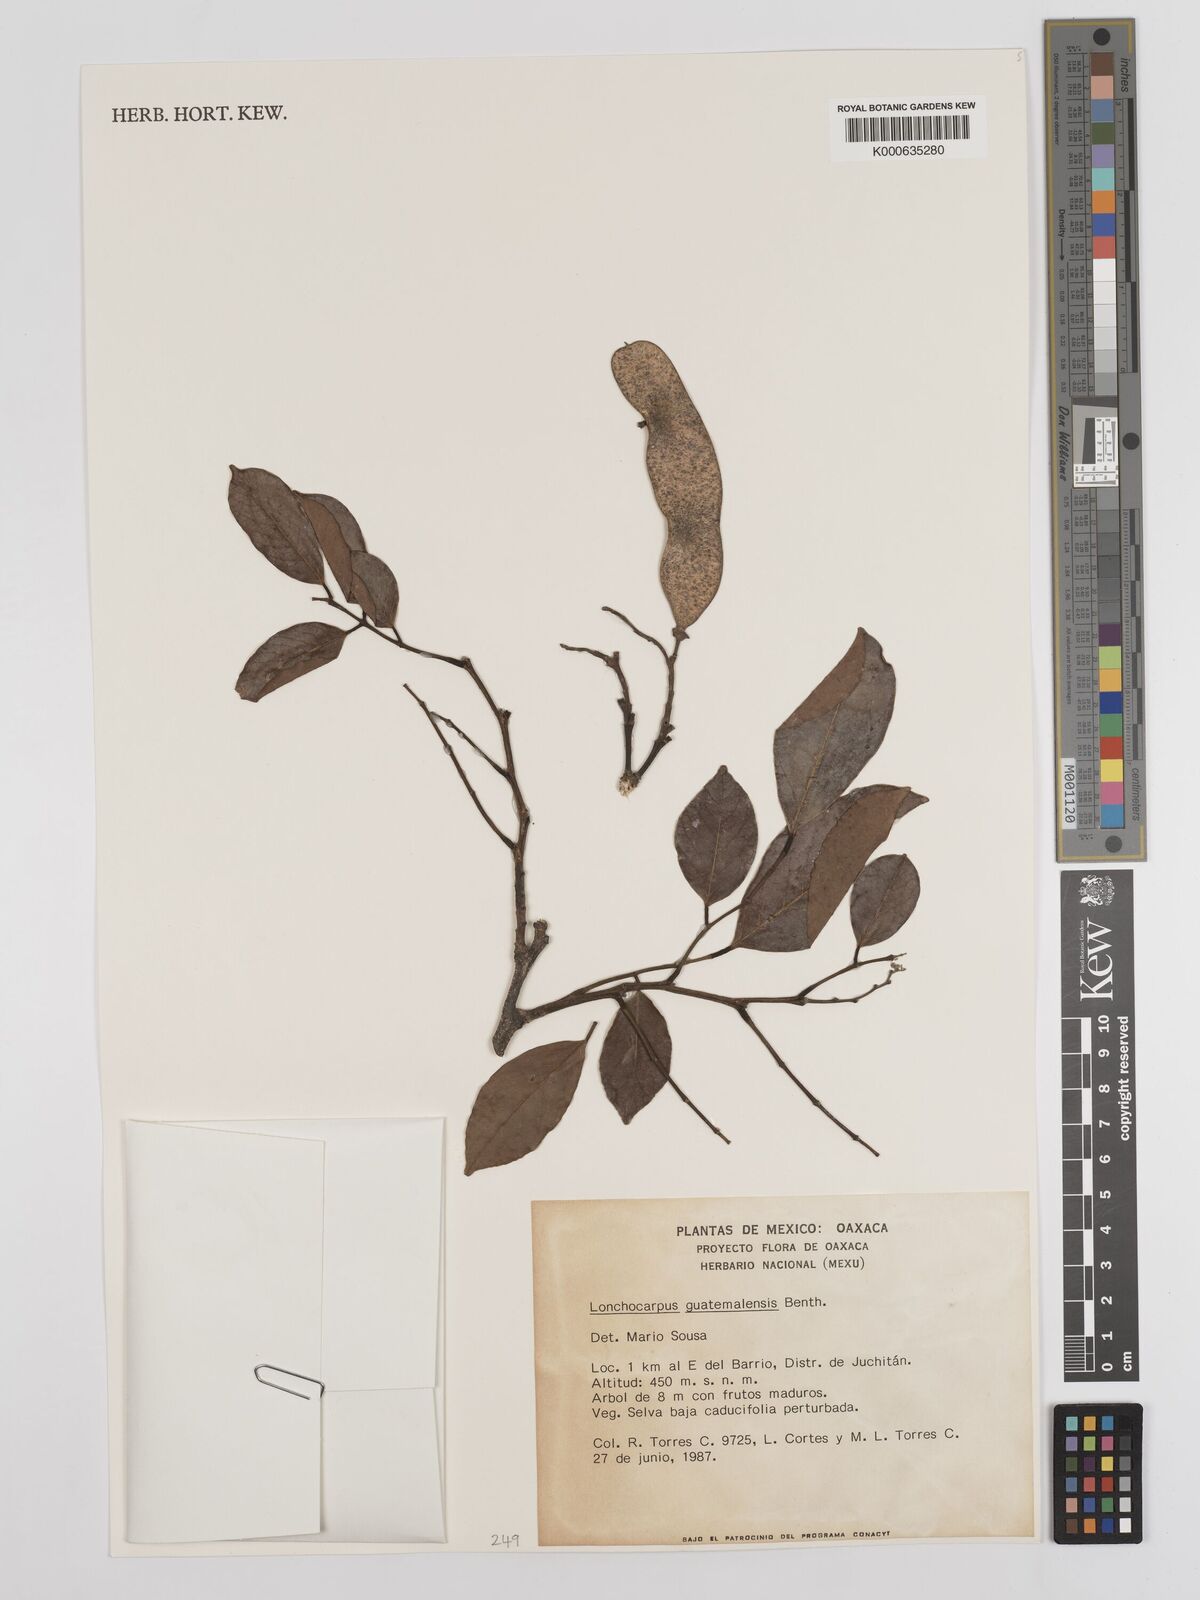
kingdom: Plantae
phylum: Tracheophyta
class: Magnoliopsida
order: Fabales
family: Fabaceae
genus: Lonchocarpus
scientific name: Lonchocarpus guatemalensis
